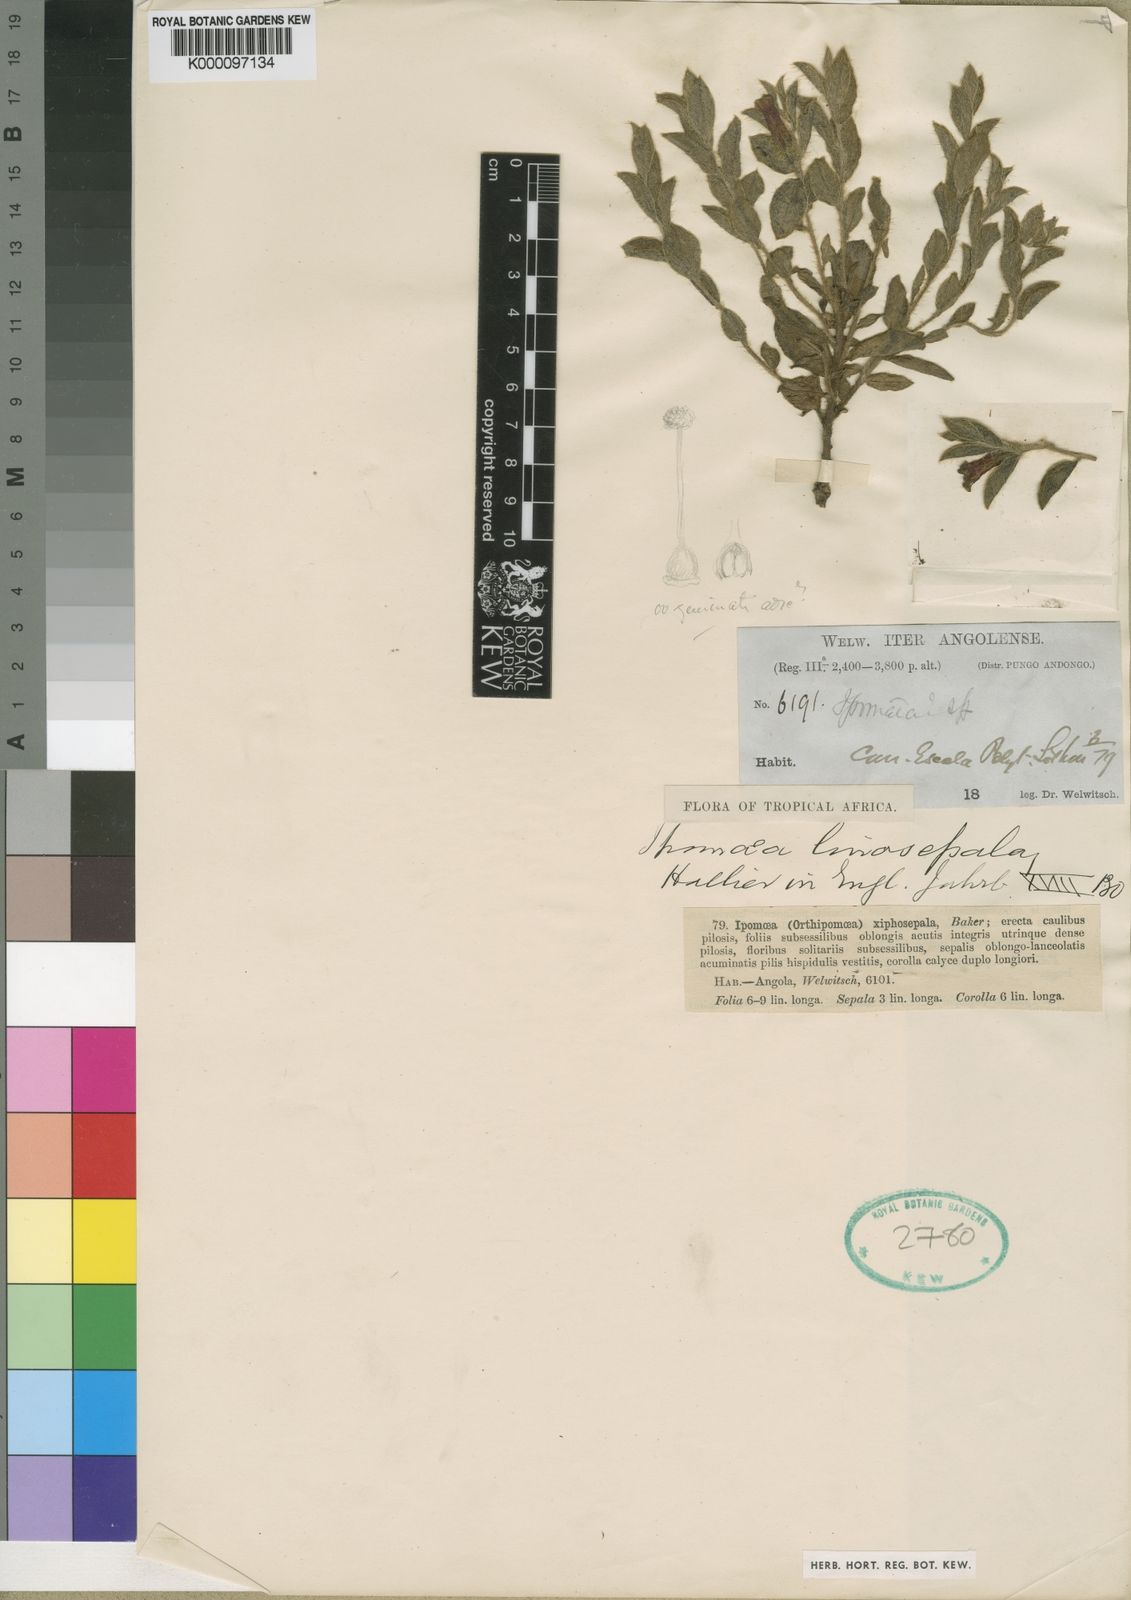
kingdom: Plantae
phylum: Tracheophyta
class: Magnoliopsida
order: Solanales
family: Convolvulaceae
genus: Ipomoea
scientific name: Ipomoea linosepala
